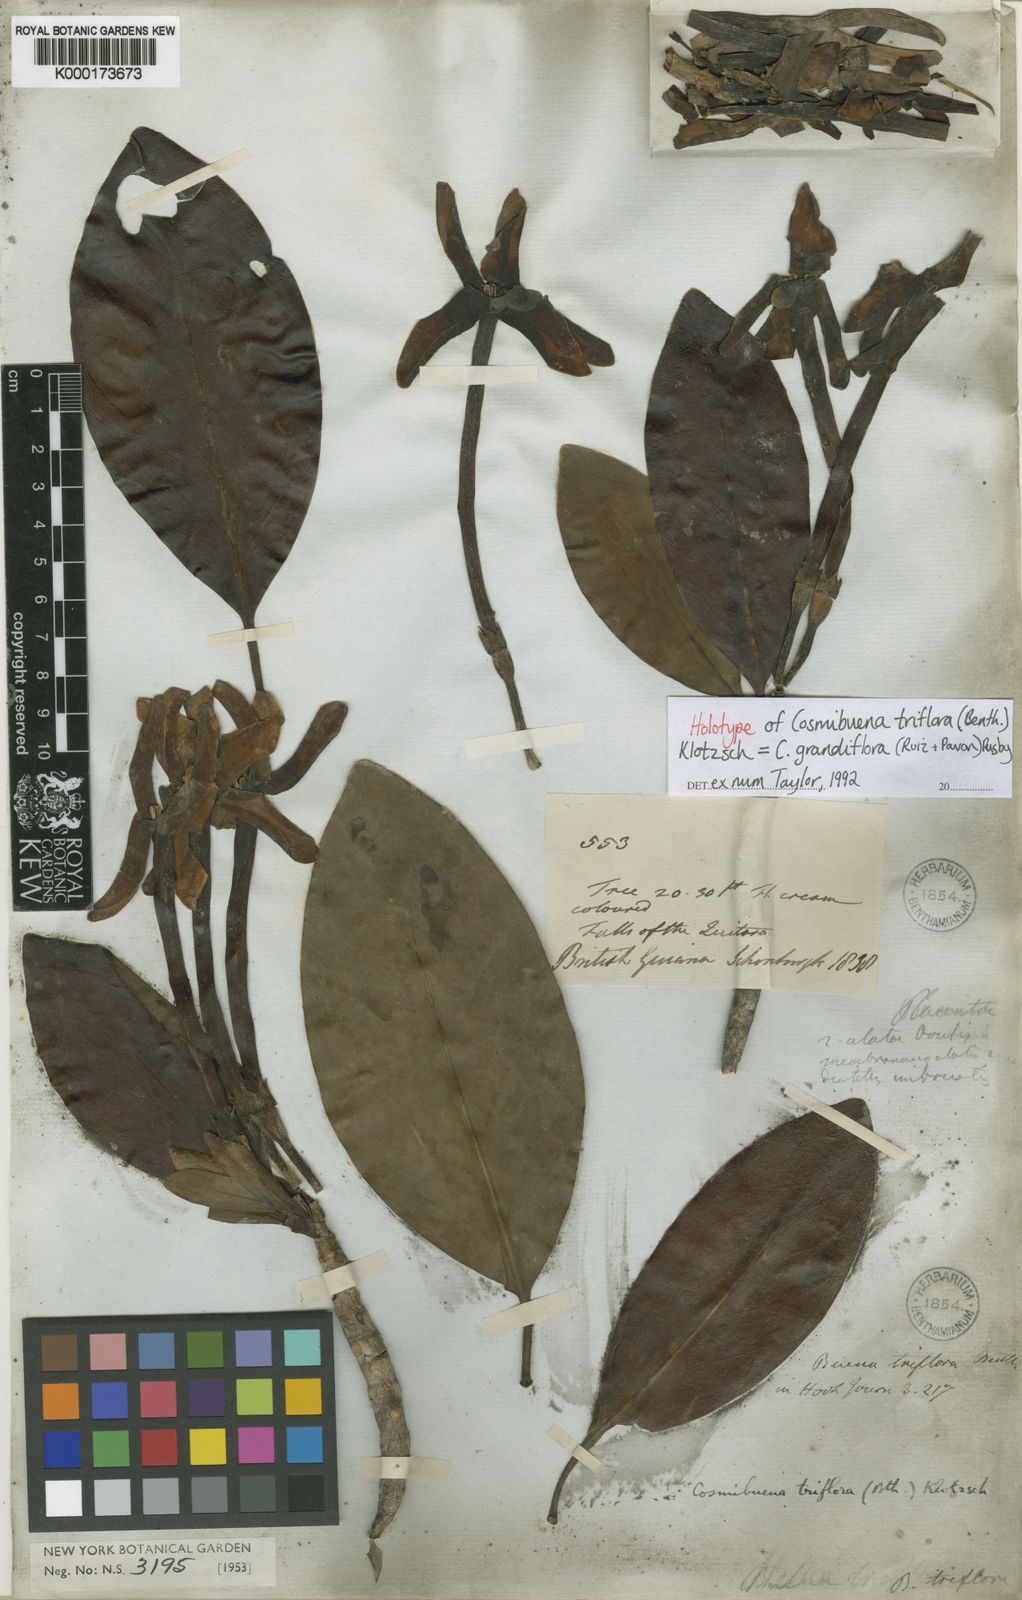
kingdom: Plantae
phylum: Tracheophyta
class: Magnoliopsida
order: Gentianales
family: Rubiaceae
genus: Cosmibuena
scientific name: Cosmibuena grandiflora
